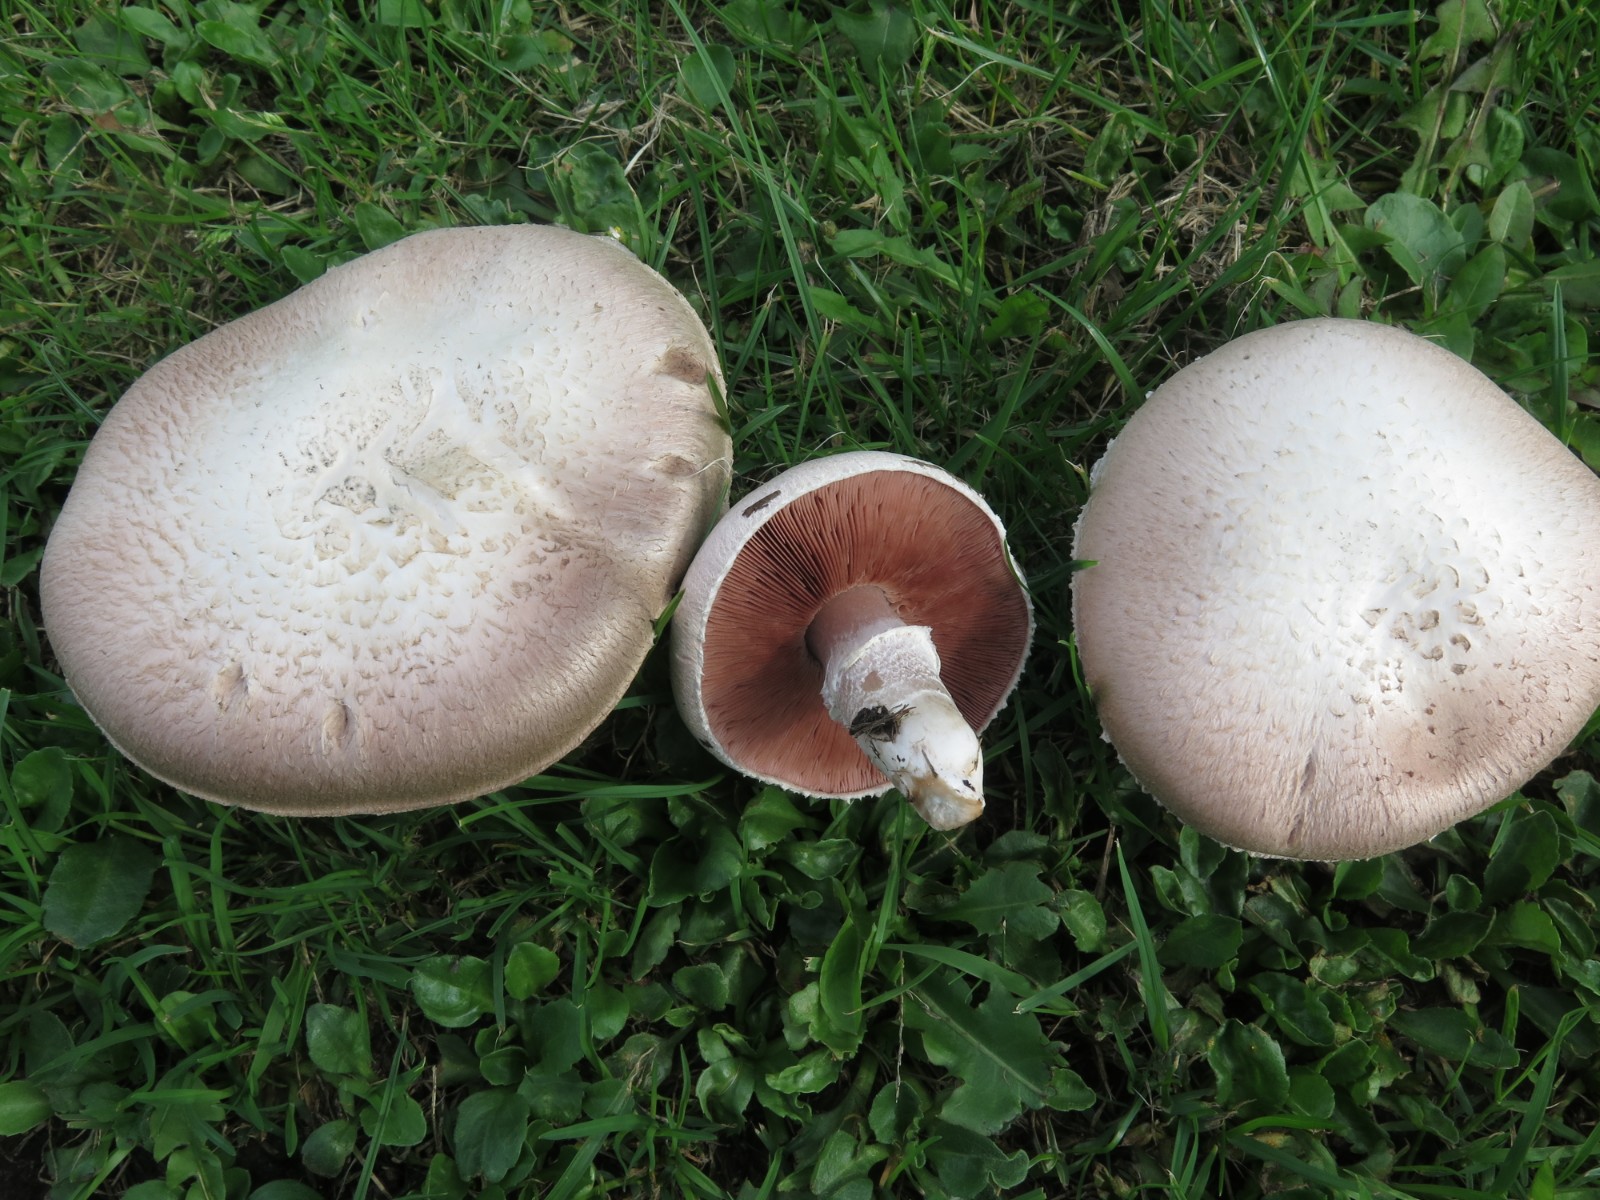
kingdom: Fungi
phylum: Basidiomycota
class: Agaricomycetes
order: Agaricales
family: Agaricaceae
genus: Agaricus
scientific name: Agaricus campestris
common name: mark-champignon
